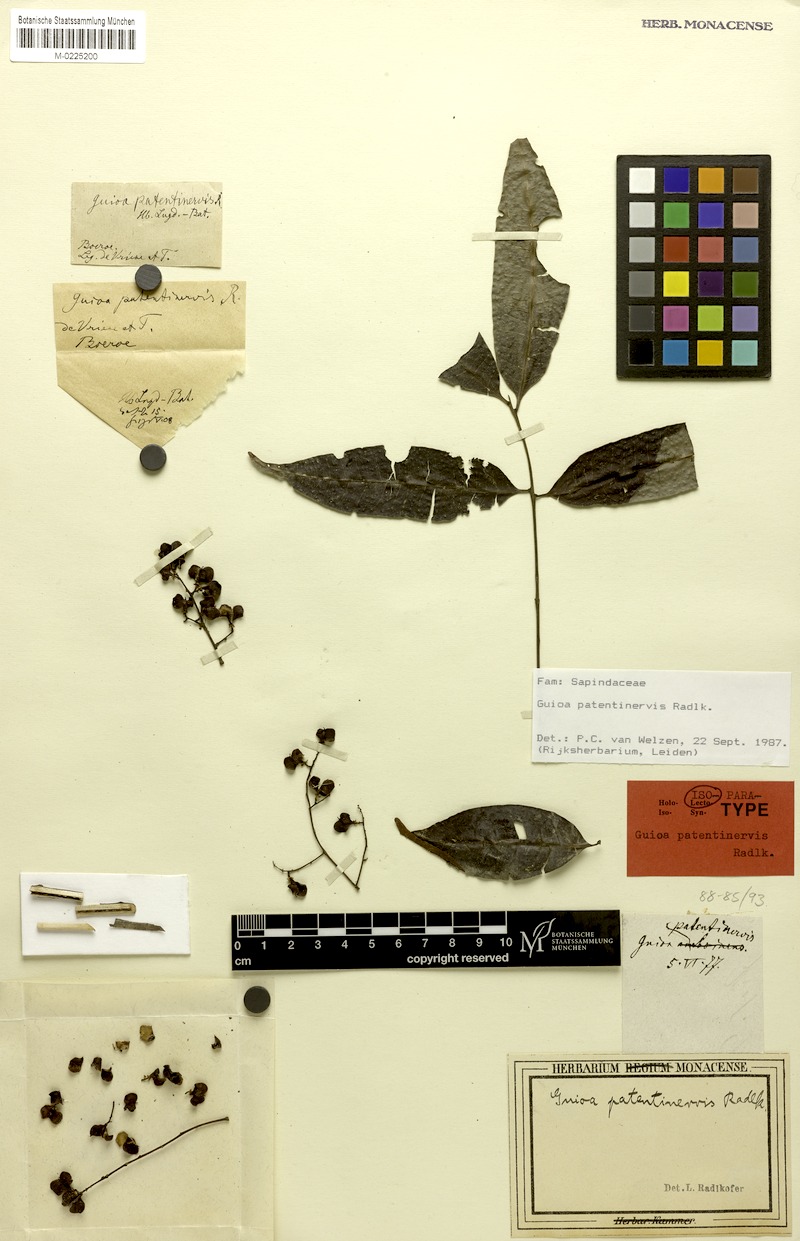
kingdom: Plantae
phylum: Tracheophyta
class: Magnoliopsida
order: Sapindales
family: Sapindaceae
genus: Guioa
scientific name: Guioa patentinervis
